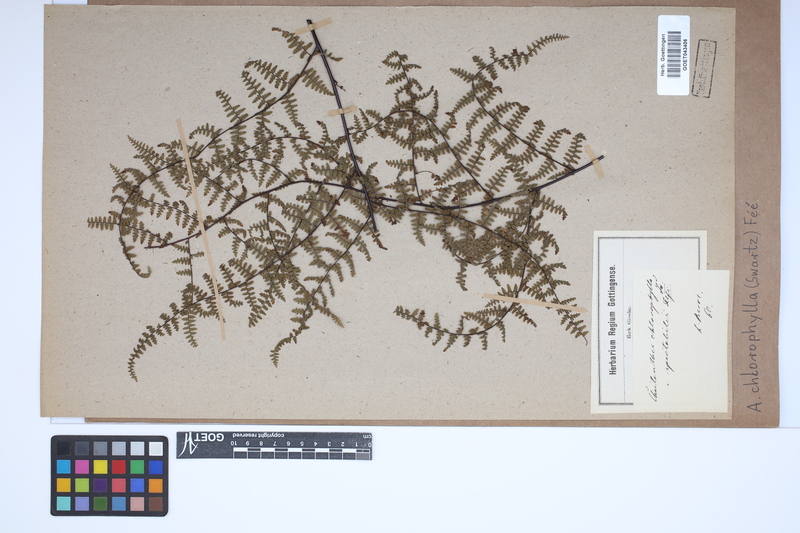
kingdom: Plantae
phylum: Tracheophyta
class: Polypodiopsida
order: Polypodiales
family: Pteridaceae
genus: Adiantopsis
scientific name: Adiantopsis chlorophylla
